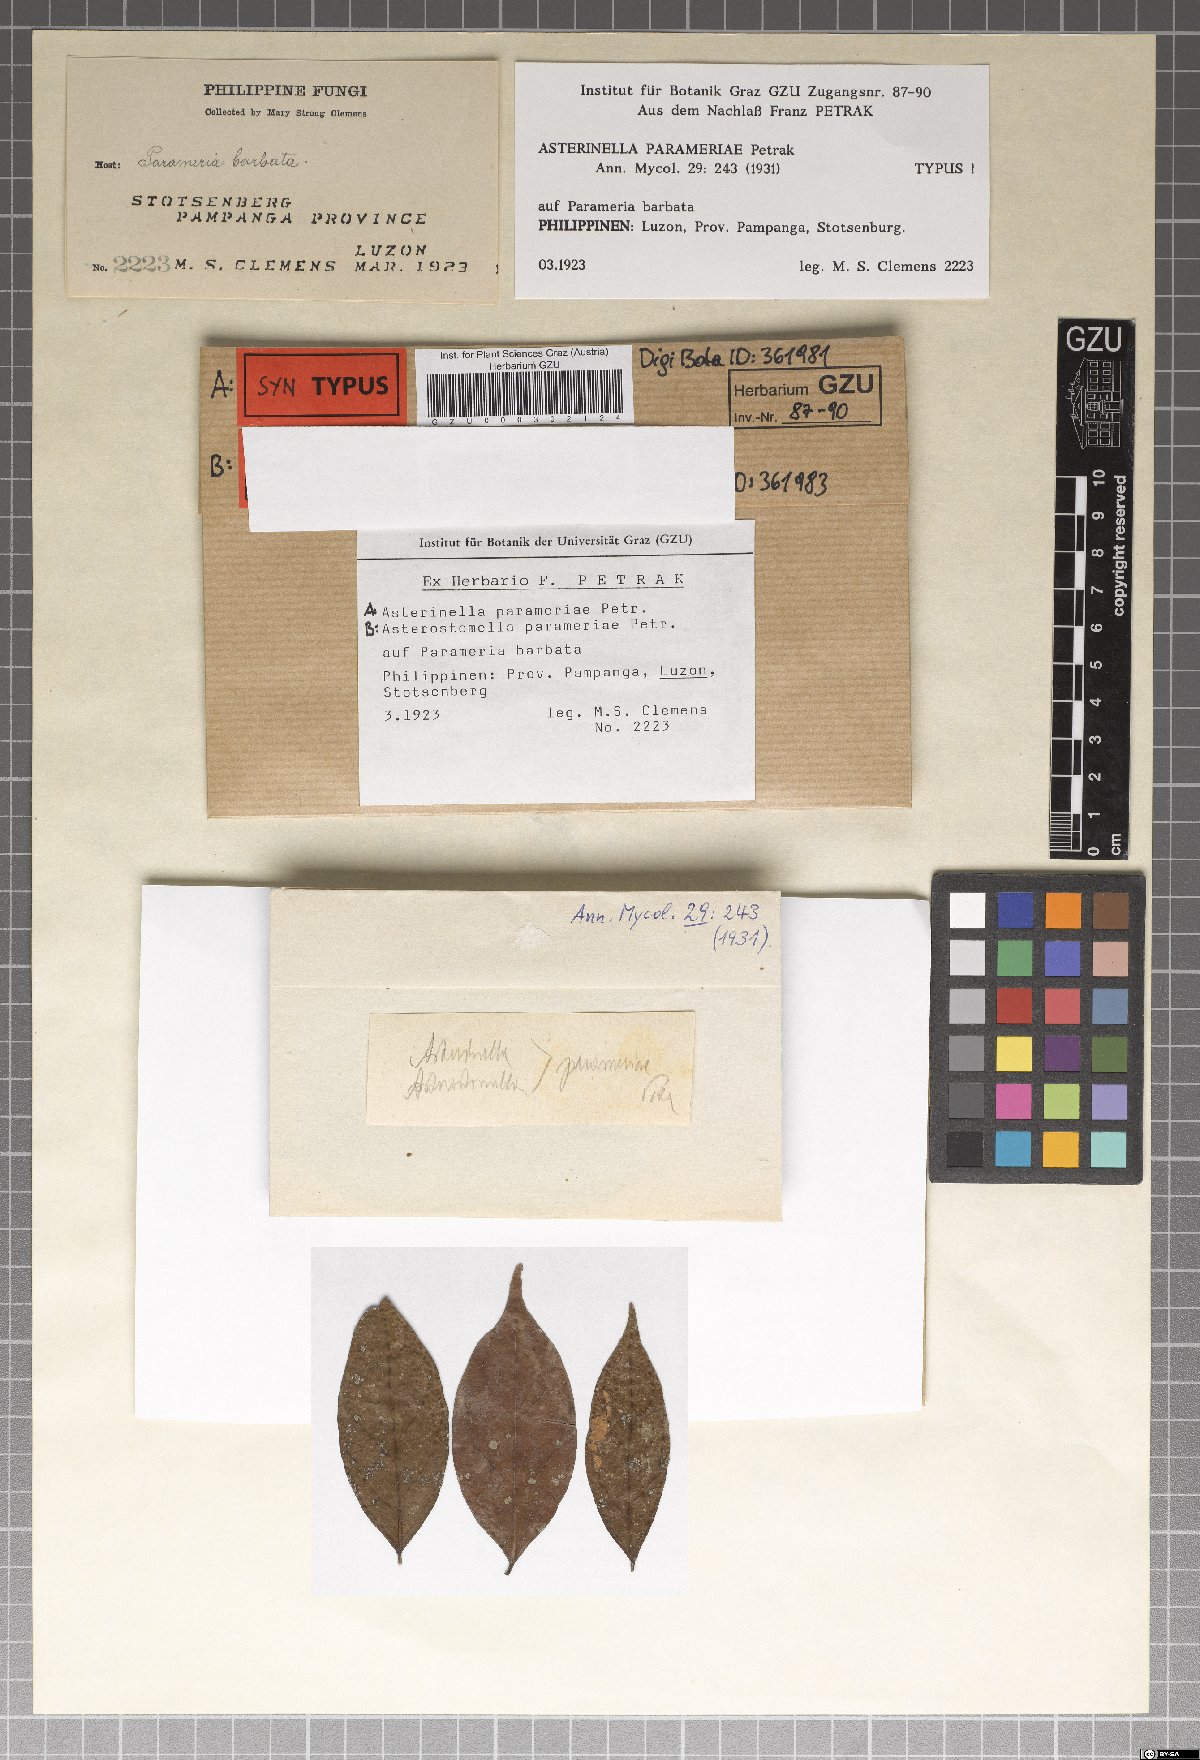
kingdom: Fungi
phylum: Ascomycota
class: Dothideomycetes
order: Microthyriales
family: Microthyriaceae
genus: Asterinella
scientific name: Asterinella parameriae
